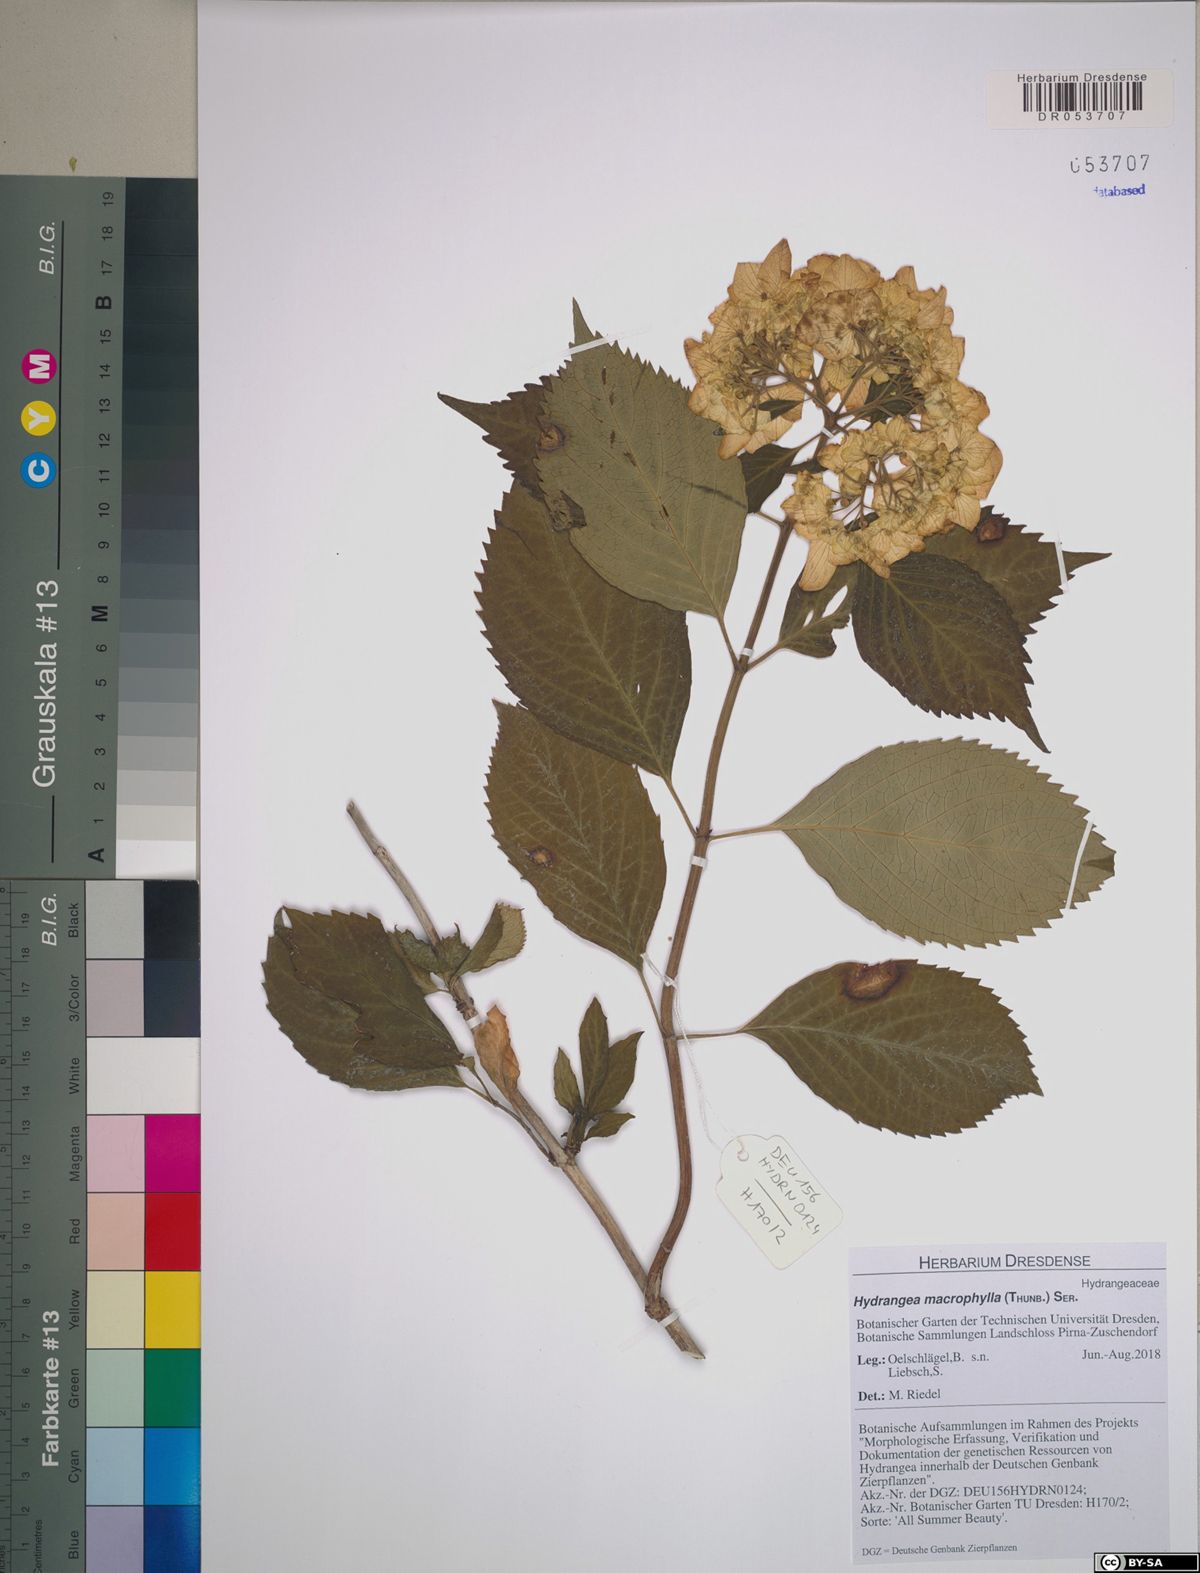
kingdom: Plantae
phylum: Tracheophyta
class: Magnoliopsida
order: Cornales
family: Hydrangeaceae
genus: Hydrangea
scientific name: Hydrangea macrophylla
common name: Hydrangea
